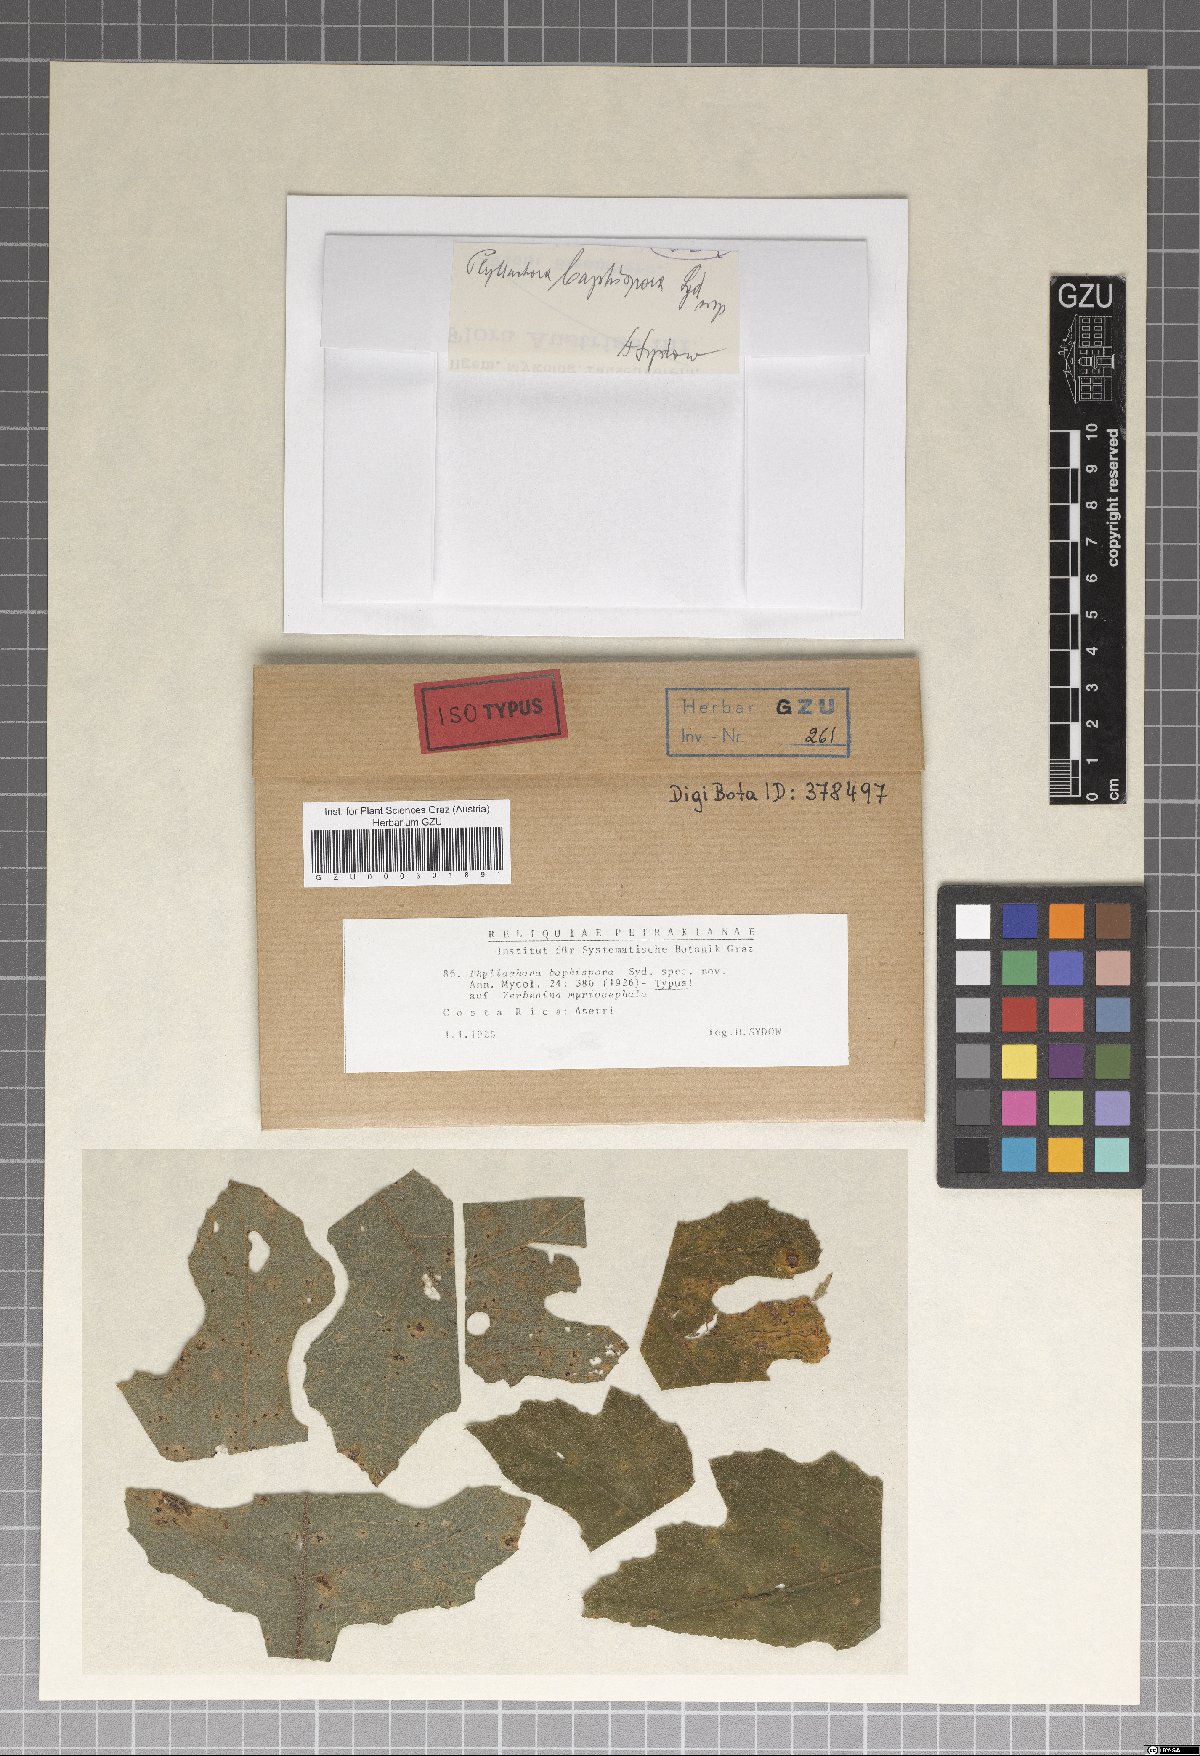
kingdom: Fungi
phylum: Ascomycota
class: Sordariomycetes
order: Phyllachorales
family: Phyllachoraceae
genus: Phyllachora
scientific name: Phyllachora baphispora
